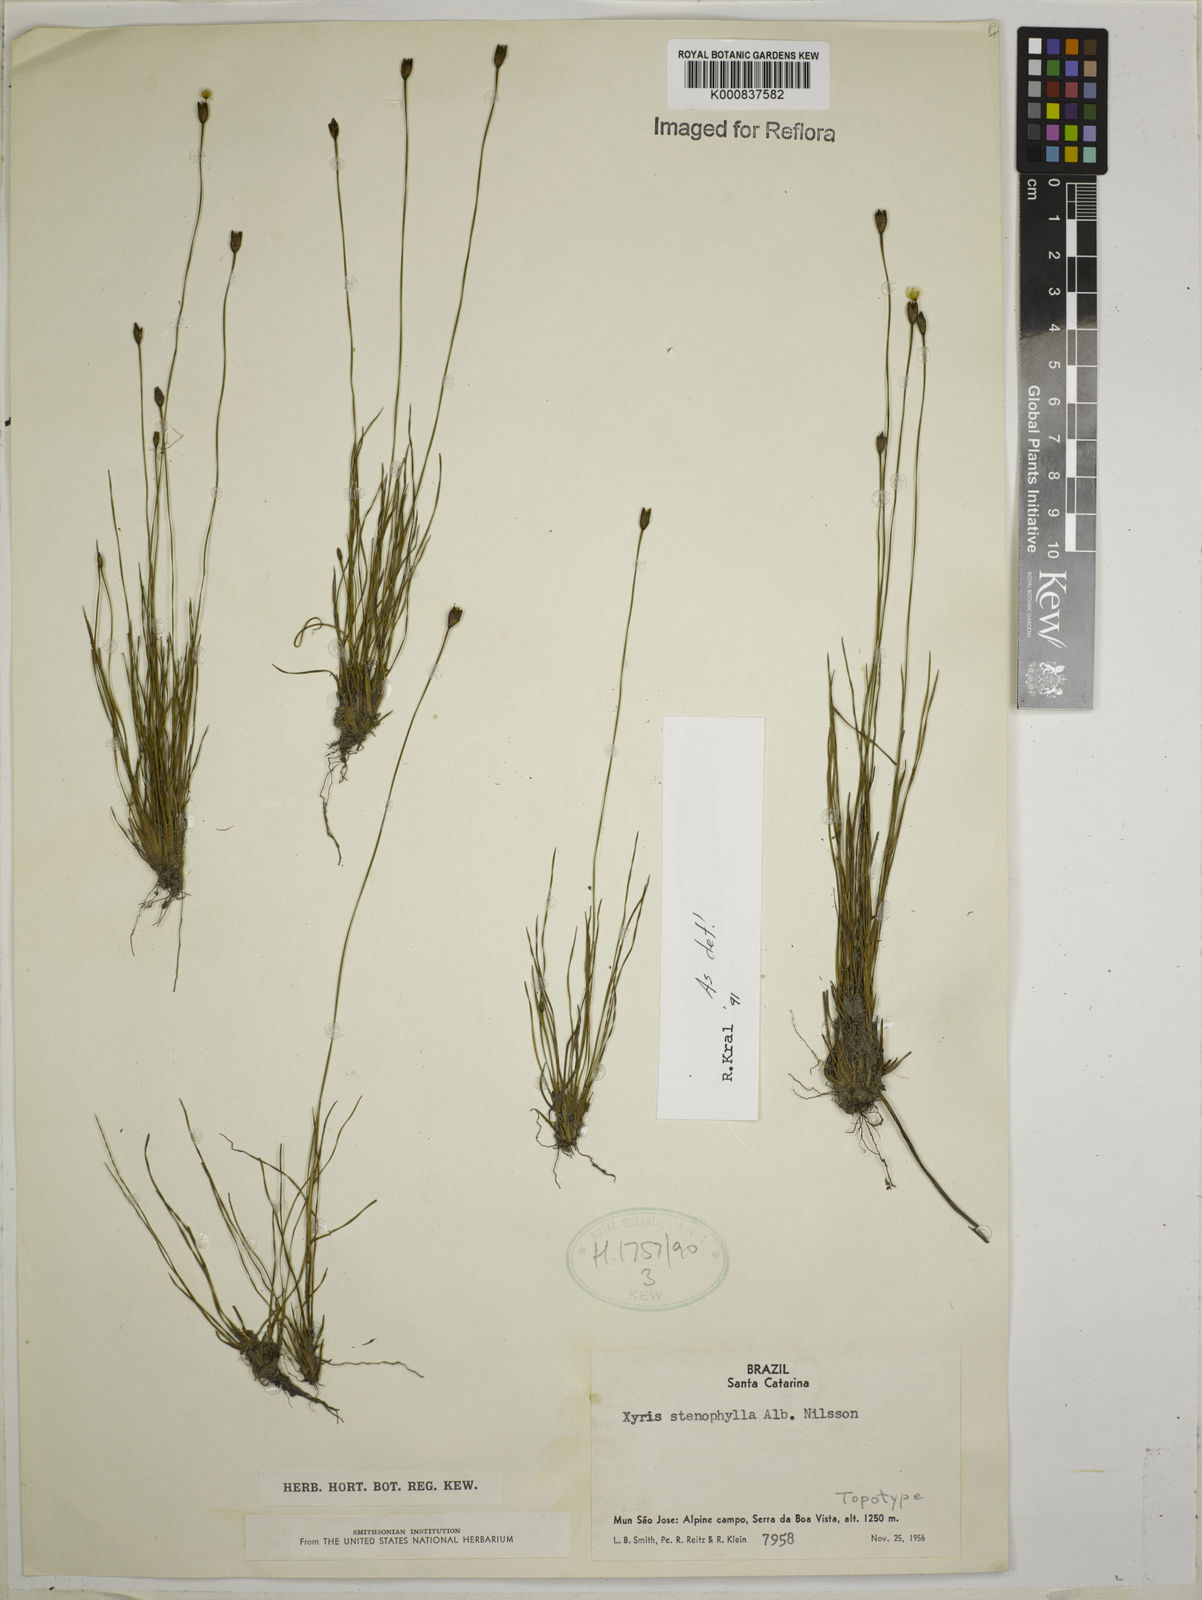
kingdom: Plantae
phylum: Tracheophyta
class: Liliopsida
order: Poales
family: Xyridaceae
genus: Xyris
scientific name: Xyris stenophylla
